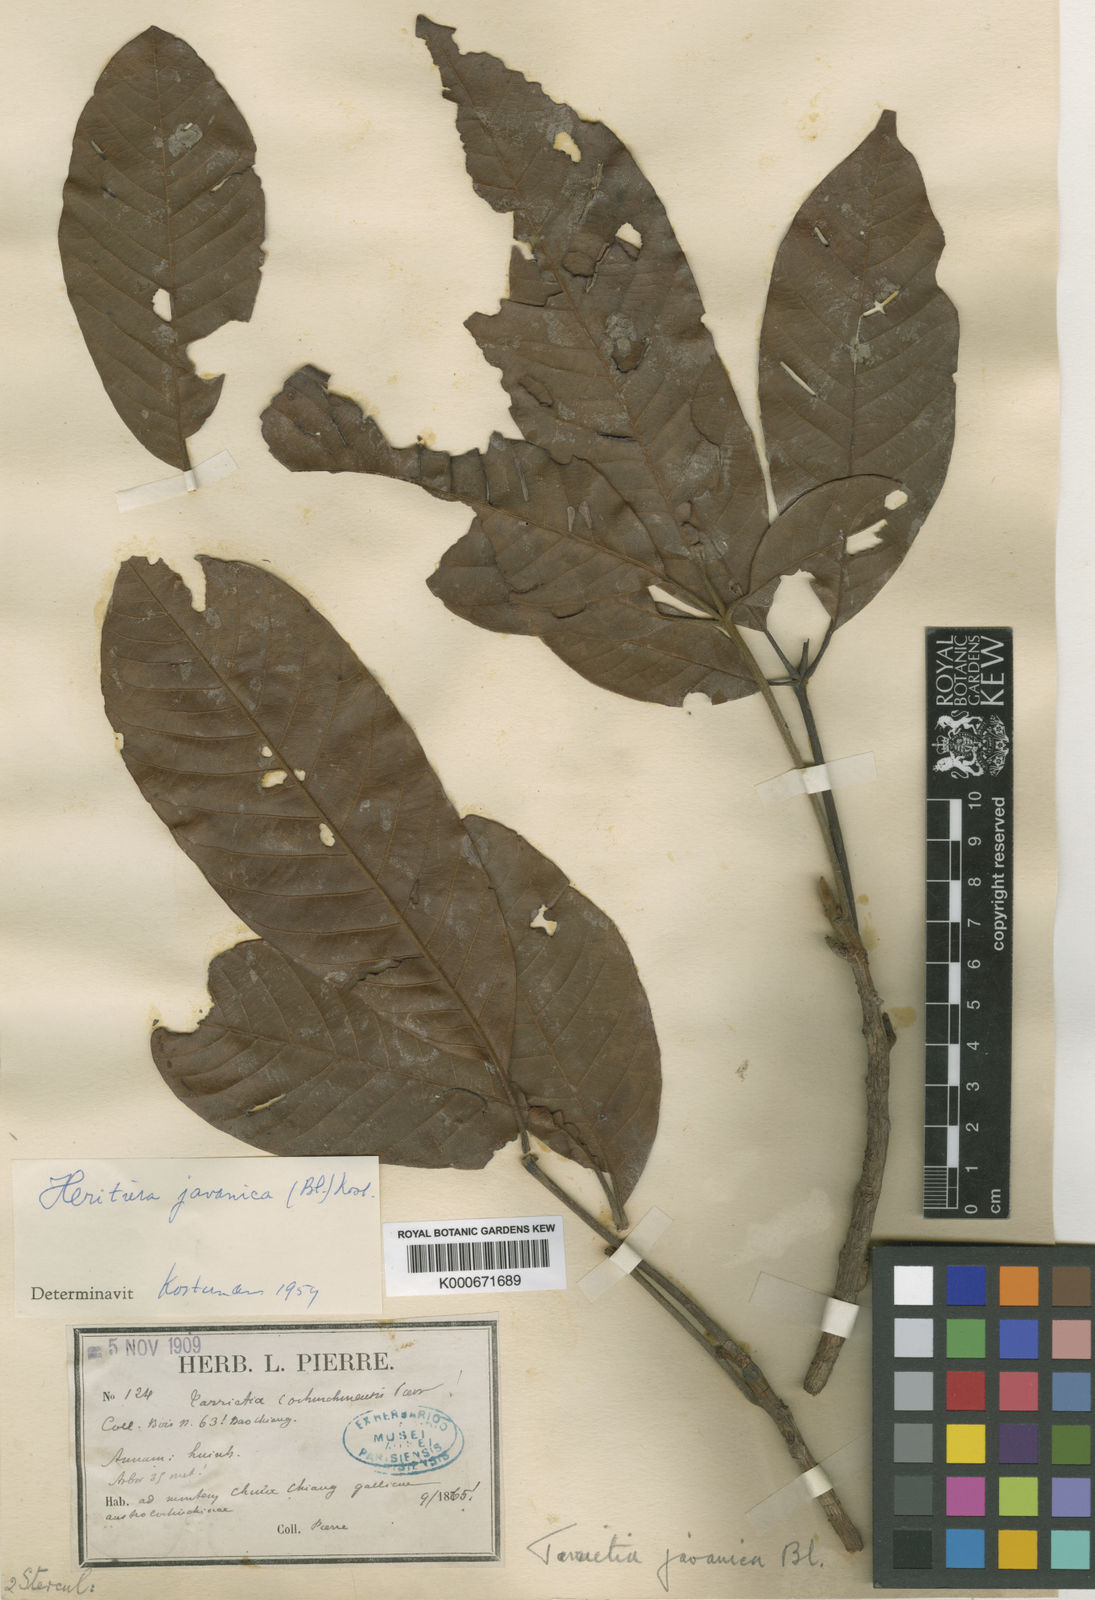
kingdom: Plantae
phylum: Tracheophyta
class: Magnoliopsida
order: Malvales
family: Malvaceae
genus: Heritiera
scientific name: Heritiera javanica
